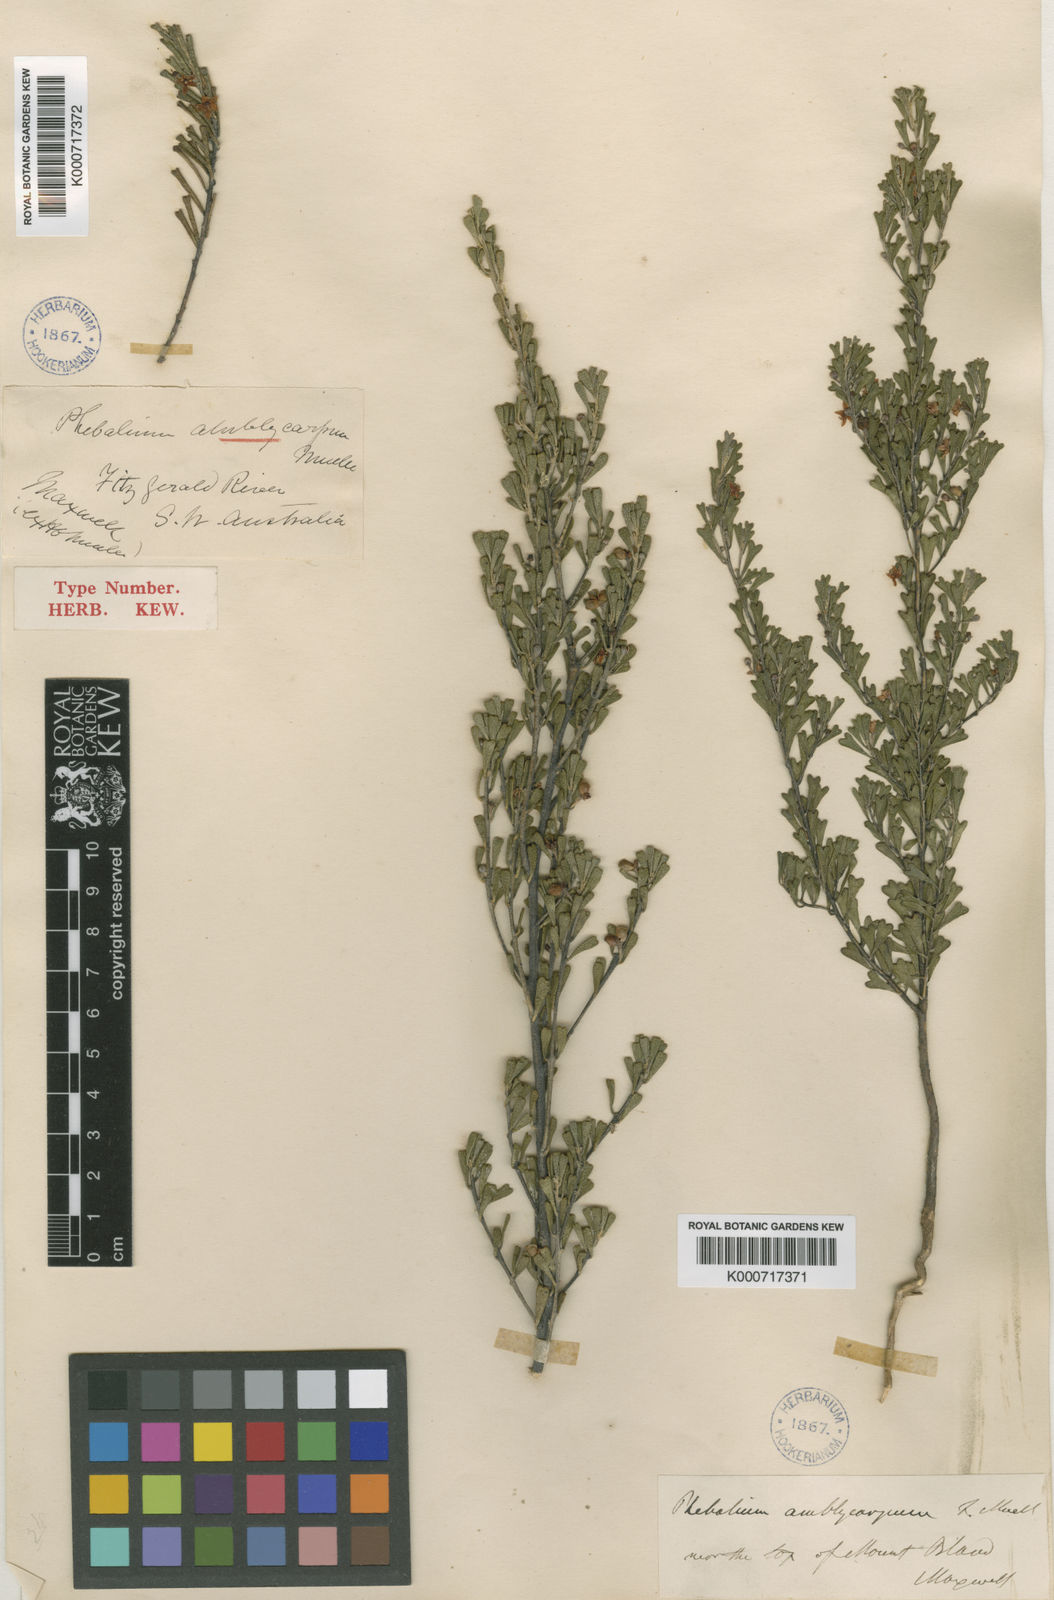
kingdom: Plantae
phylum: Tracheophyta
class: Magnoliopsida
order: Sapindales
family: Rutaceae
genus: Rhadinothamnus
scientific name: Rhadinothamnus rudis
